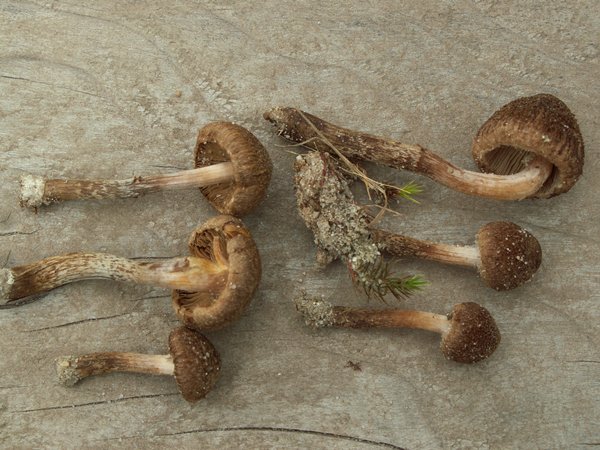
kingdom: Fungi
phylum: Basidiomycota
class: Agaricomycetes
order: Agaricales
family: Inocybaceae
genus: Inocybe
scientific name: Inocybe lacera
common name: laset trævlhat
